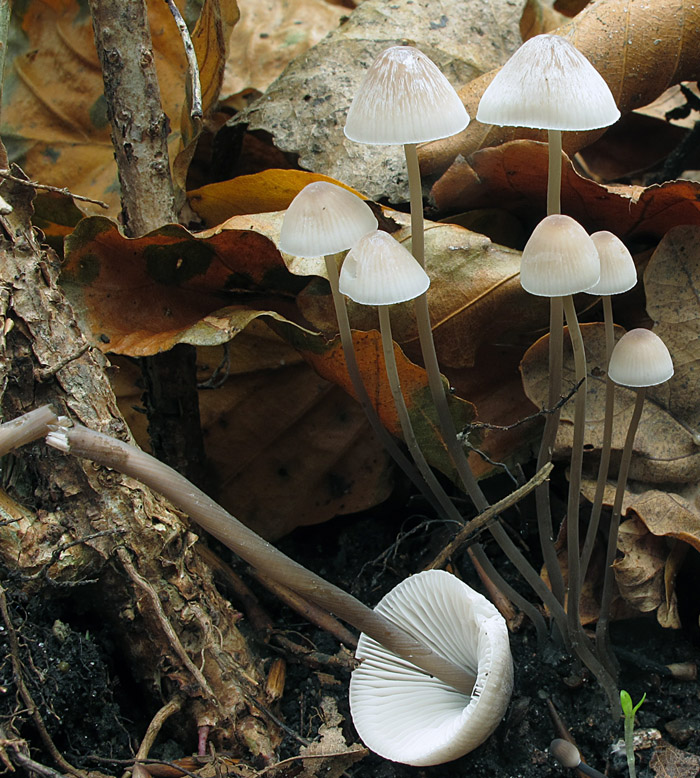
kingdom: Fungi
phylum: Basidiomycota
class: Agaricomycetes
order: Agaricales
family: Mycenaceae
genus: Mycena
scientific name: Mycena filopes
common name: jod-huesvamp
